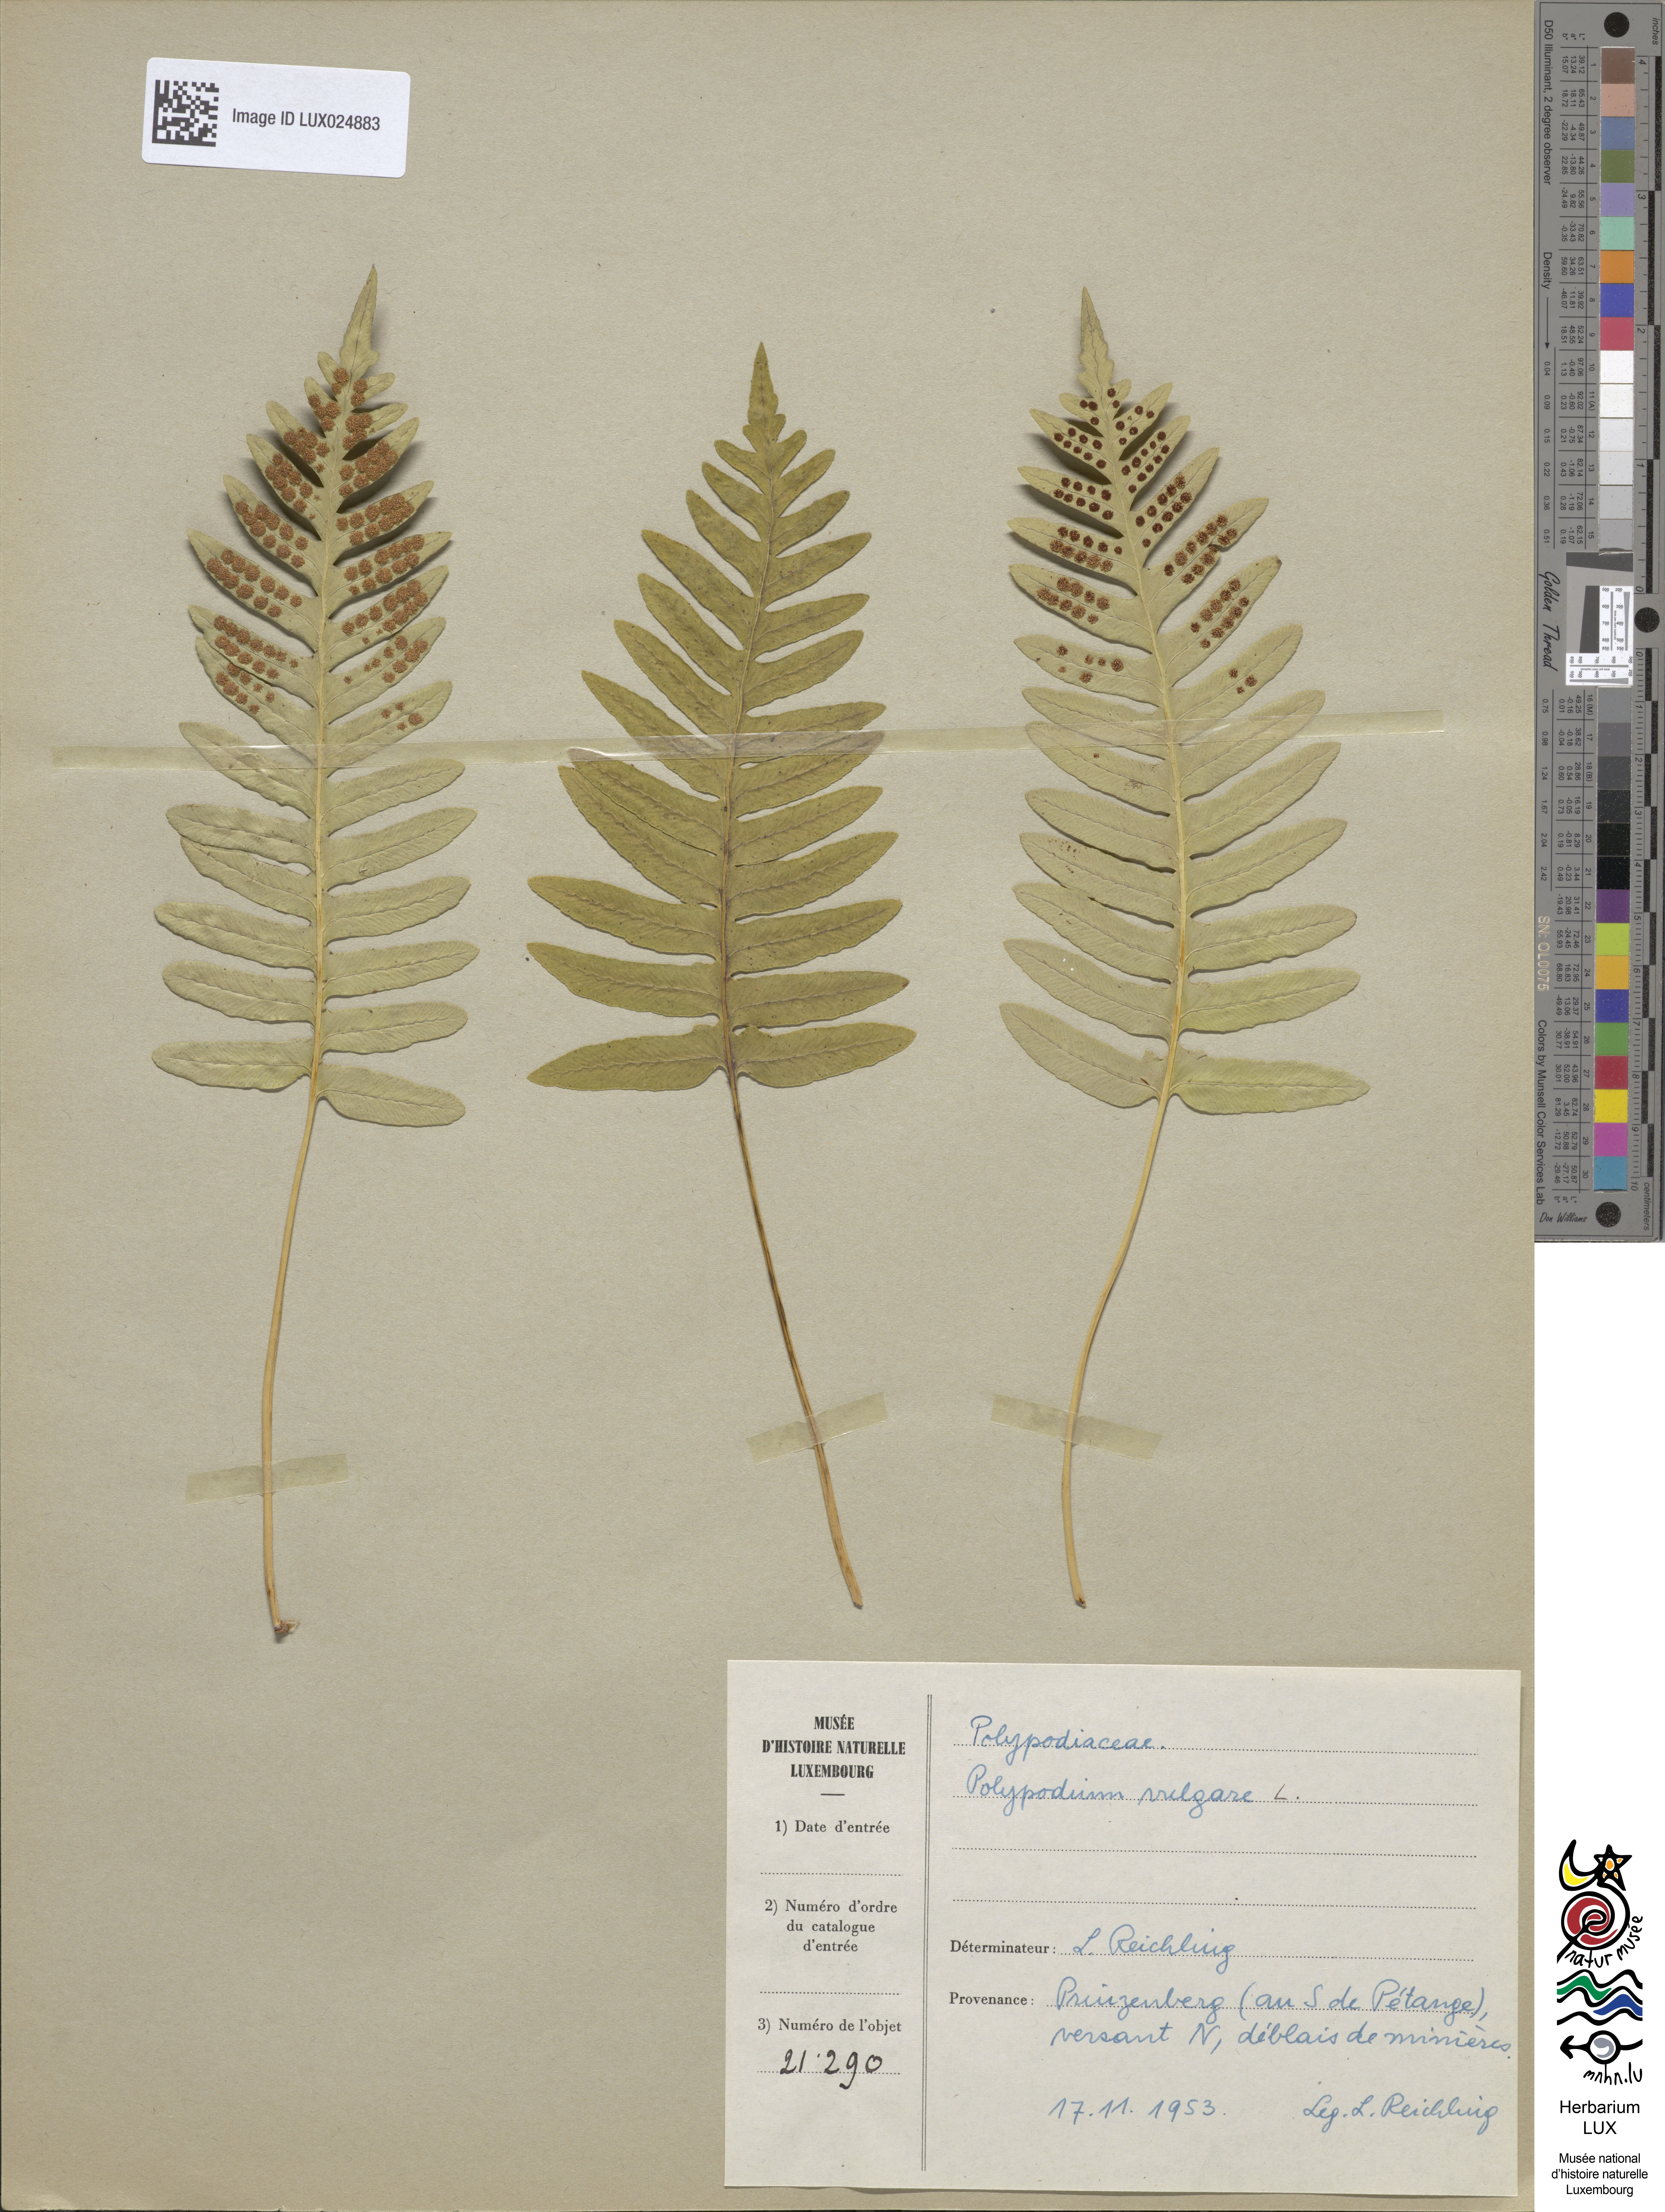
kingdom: Plantae
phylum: Tracheophyta
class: Polypodiopsida
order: Polypodiales
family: Polypodiaceae
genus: Polypodium
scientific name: Polypodium vulgare
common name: Common polypody
